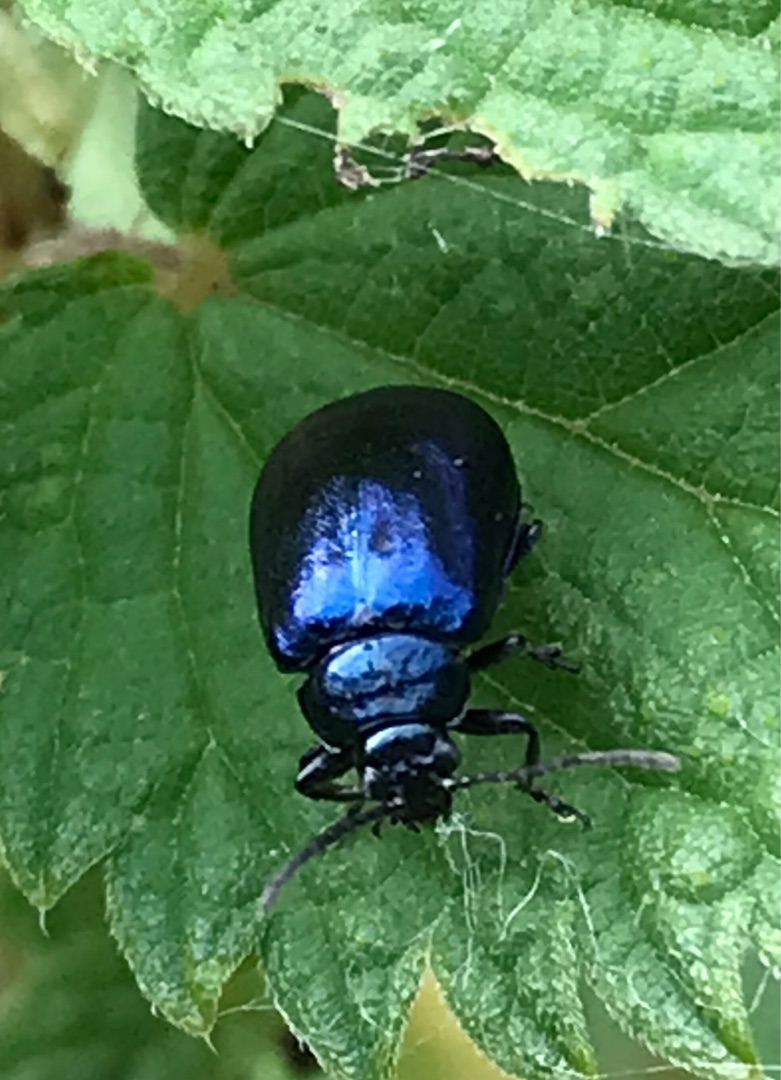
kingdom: Animalia
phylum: Arthropoda
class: Insecta
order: Coleoptera
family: Chrysomelidae
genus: Agelastica
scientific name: Agelastica alni
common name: Ellebladbille
